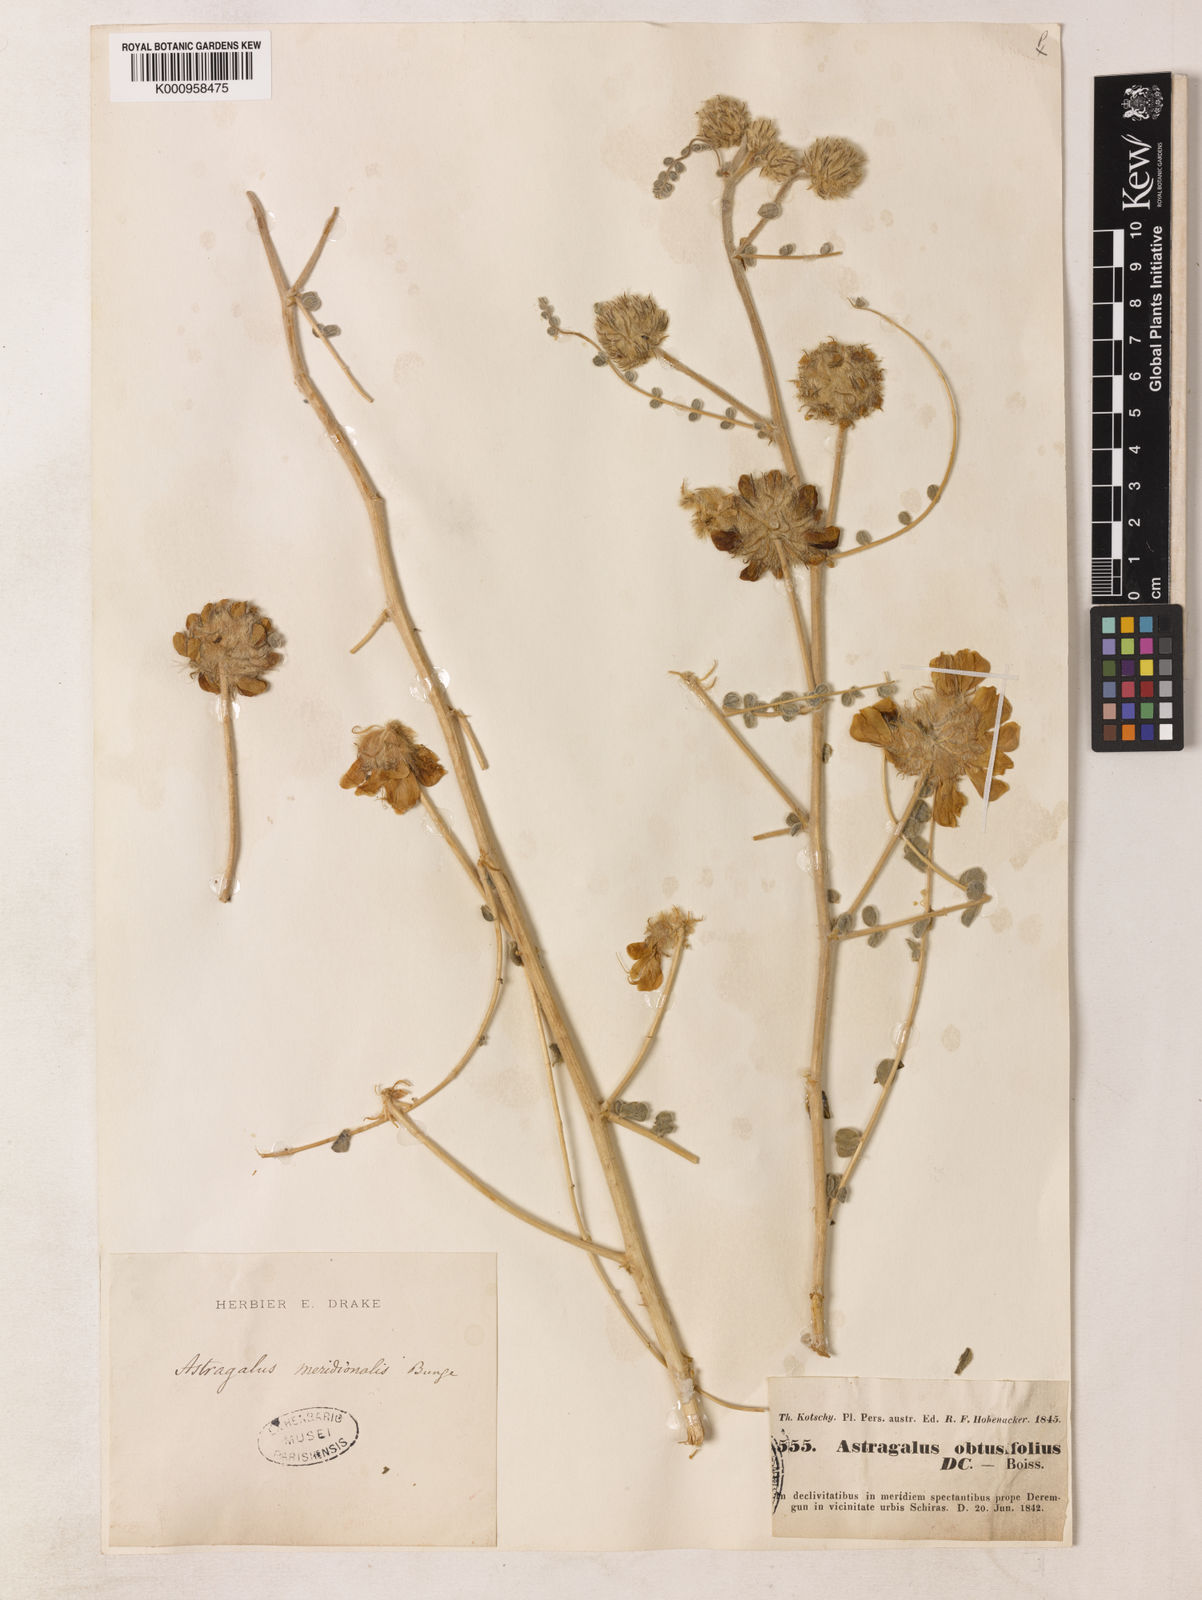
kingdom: Plantae
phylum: Tracheophyta
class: Magnoliopsida
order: Fabales
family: Fabaceae
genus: Astragalus
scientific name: Astragalus obtusifolius
